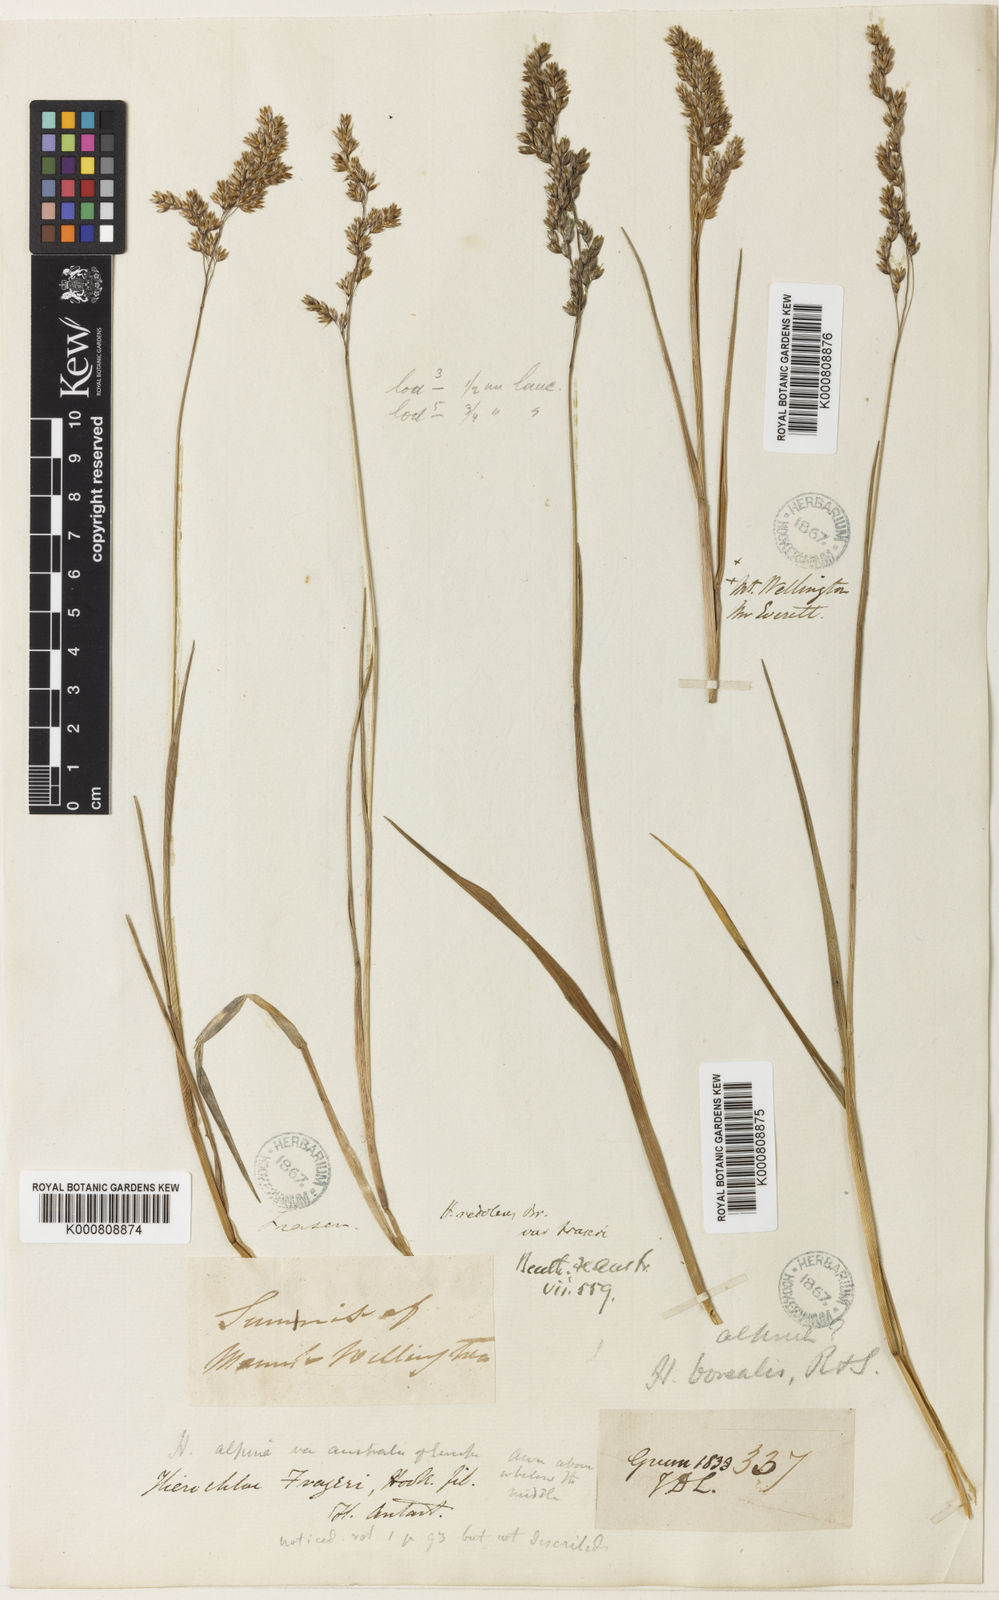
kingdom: Plantae
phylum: Tracheophyta
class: Liliopsida
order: Poales
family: Poaceae
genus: Hierochloe
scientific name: Hierochloe
